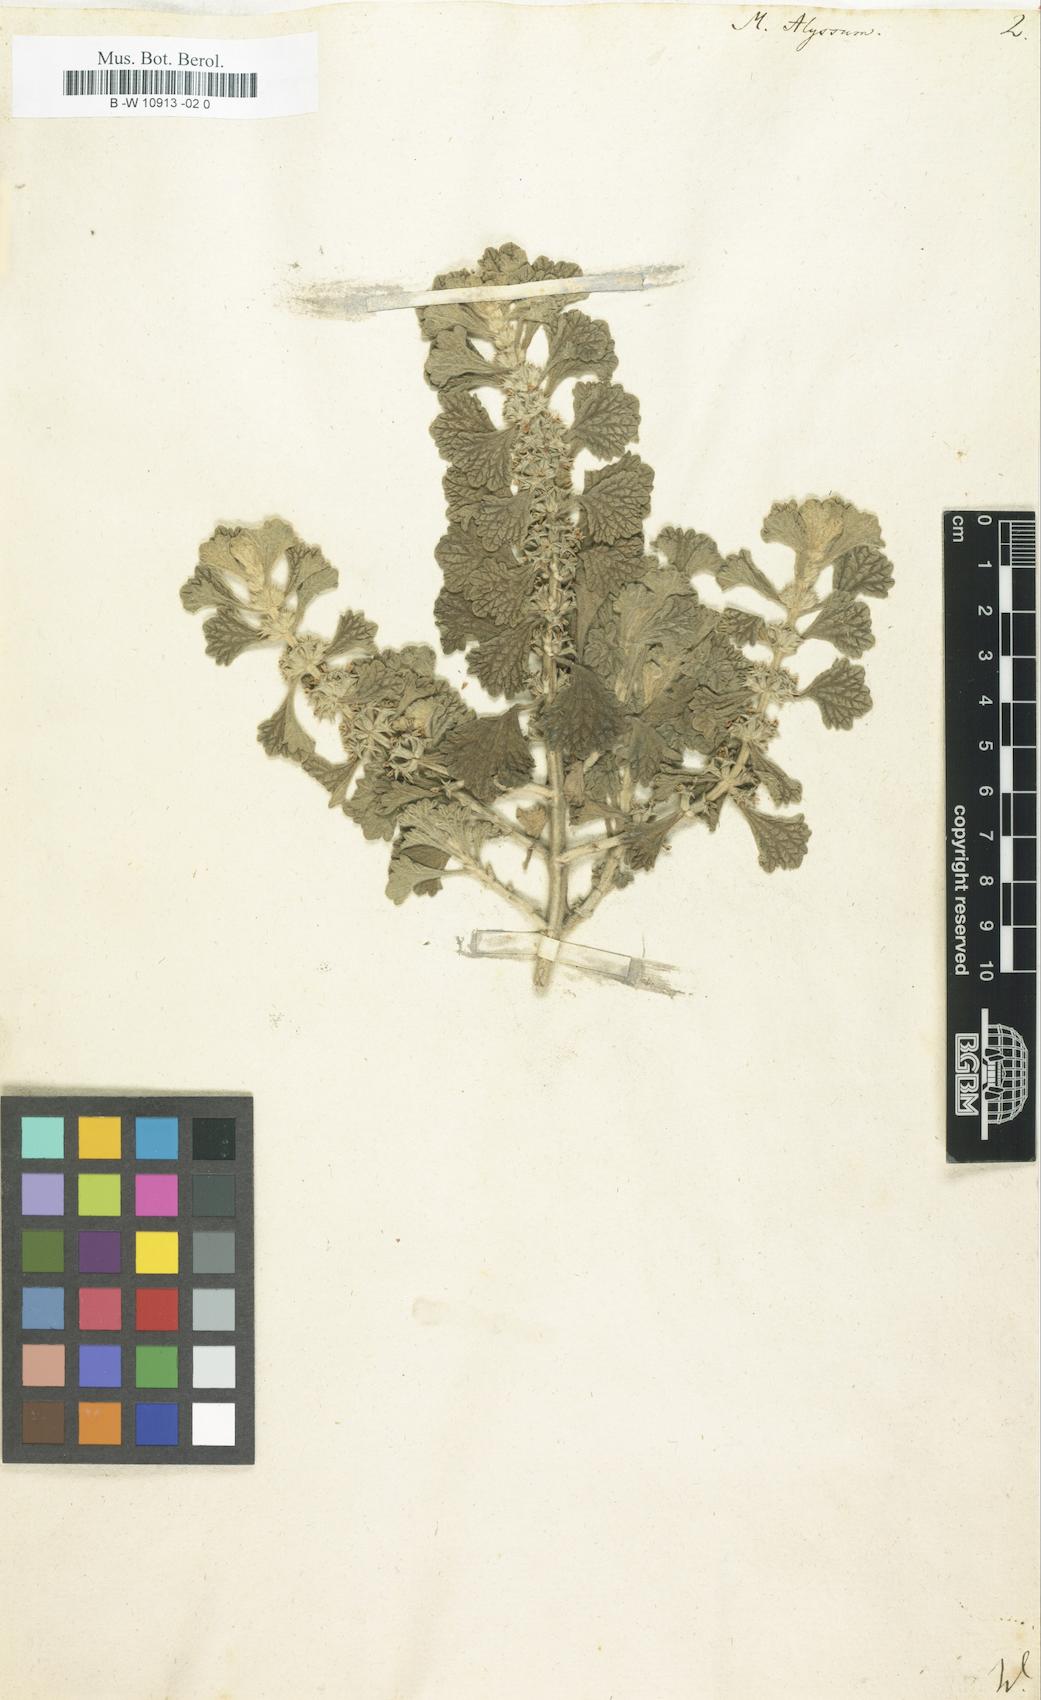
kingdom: Plantae
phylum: Tracheophyta
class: Magnoliopsida
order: Lamiales
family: Lamiaceae
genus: Marrubium
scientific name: Marrubium alysson
